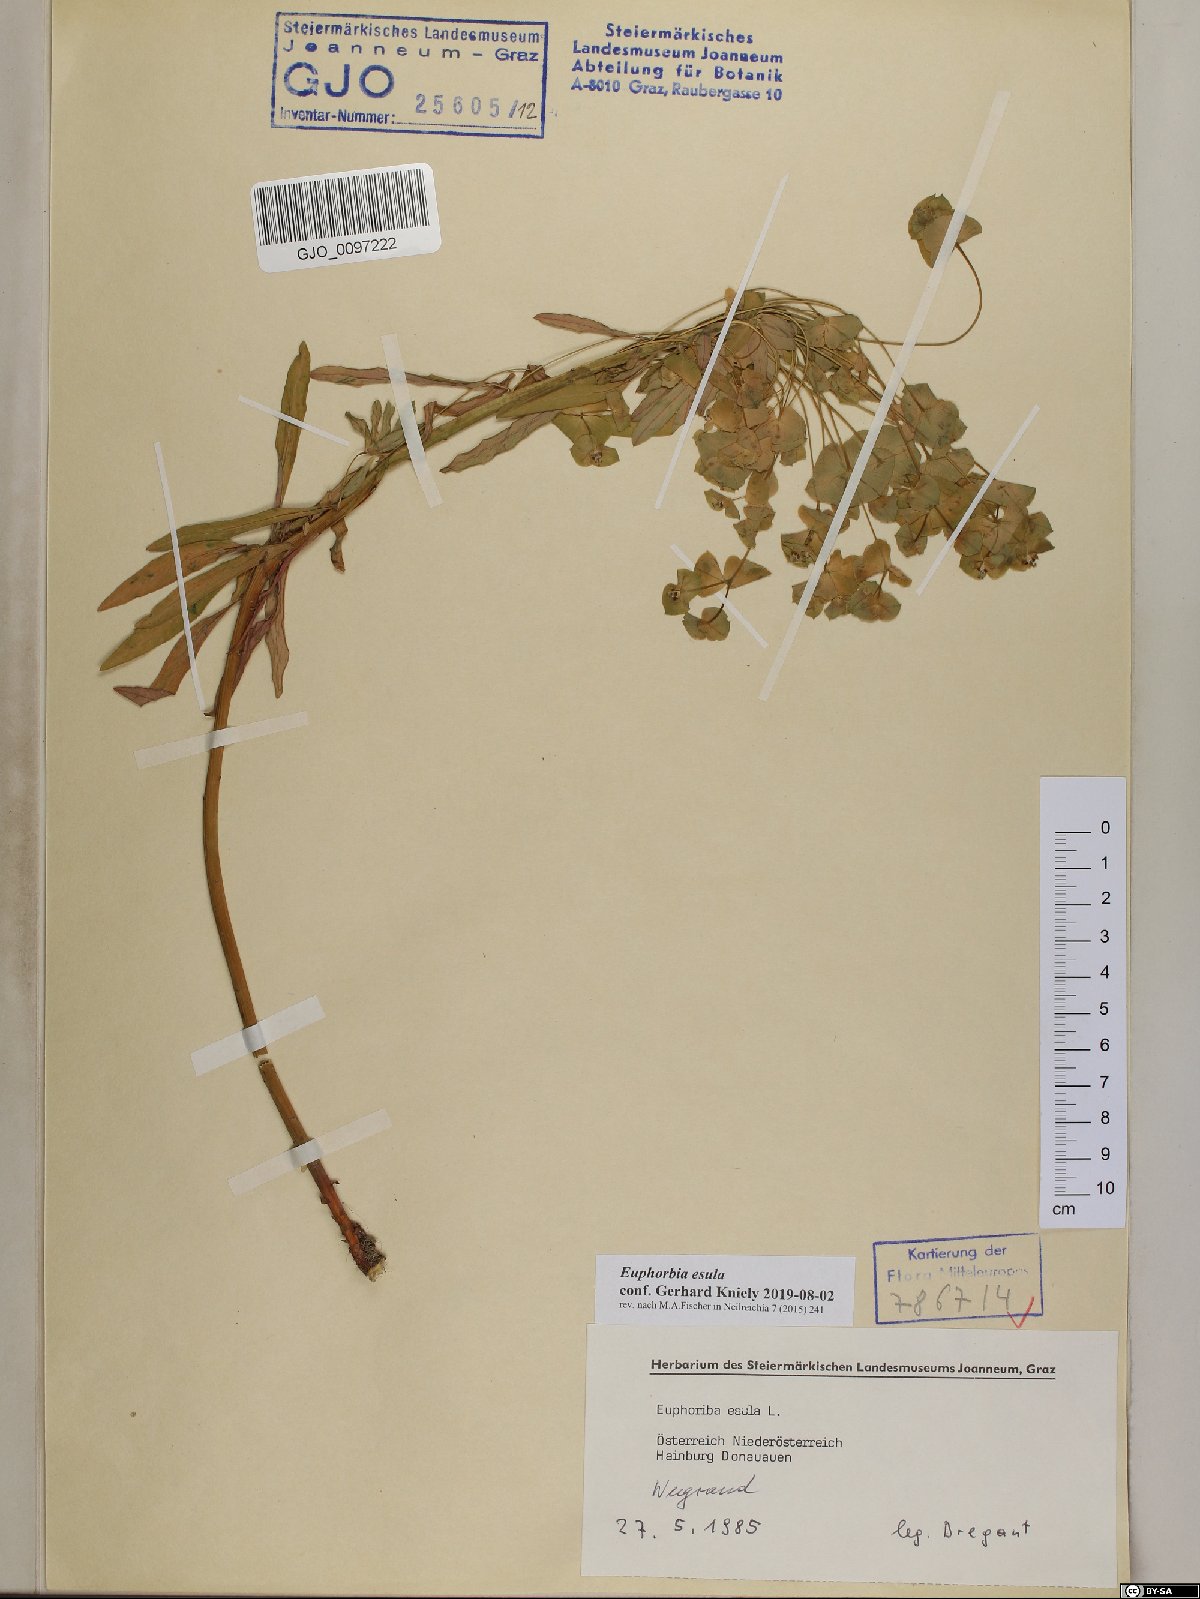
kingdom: Plantae
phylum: Tracheophyta
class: Magnoliopsida
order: Malpighiales
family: Euphorbiaceae
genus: Euphorbia
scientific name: Euphorbia esula
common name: Leafy spurge
